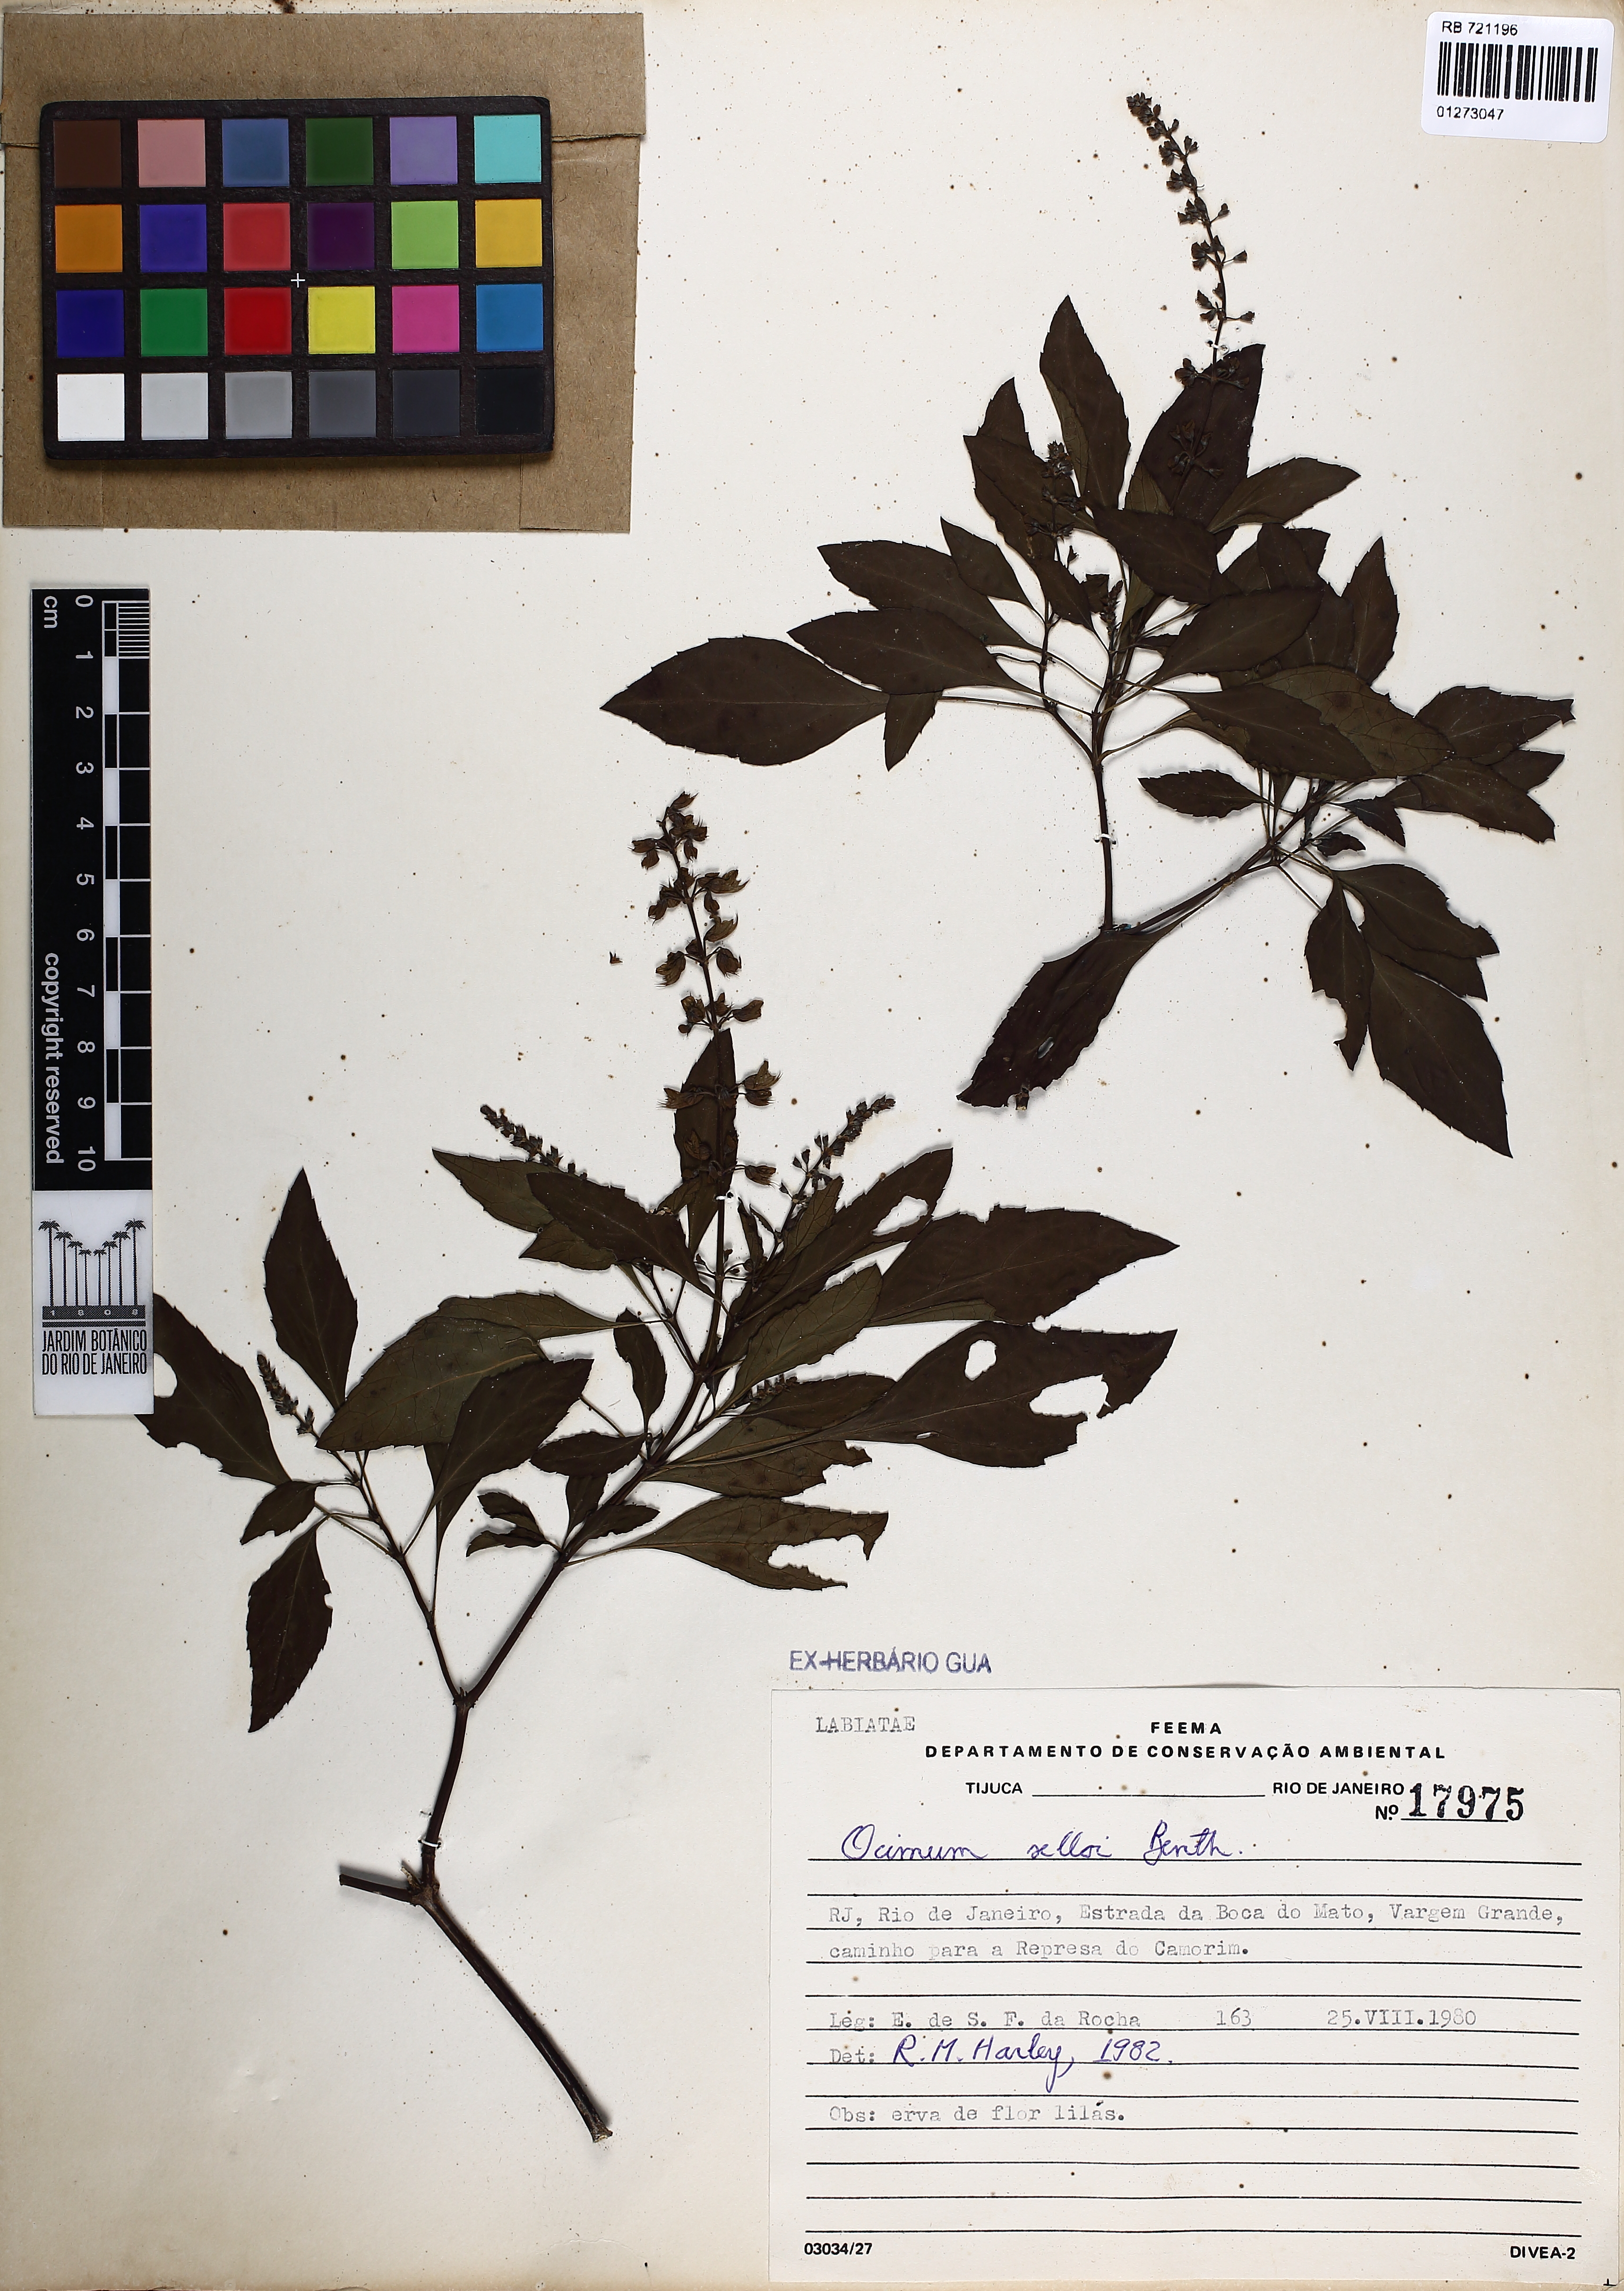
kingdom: Plantae
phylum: Tracheophyta
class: Magnoliopsida
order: Lamiales
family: Lamiaceae
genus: Ocimum
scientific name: Ocimum carnosum
